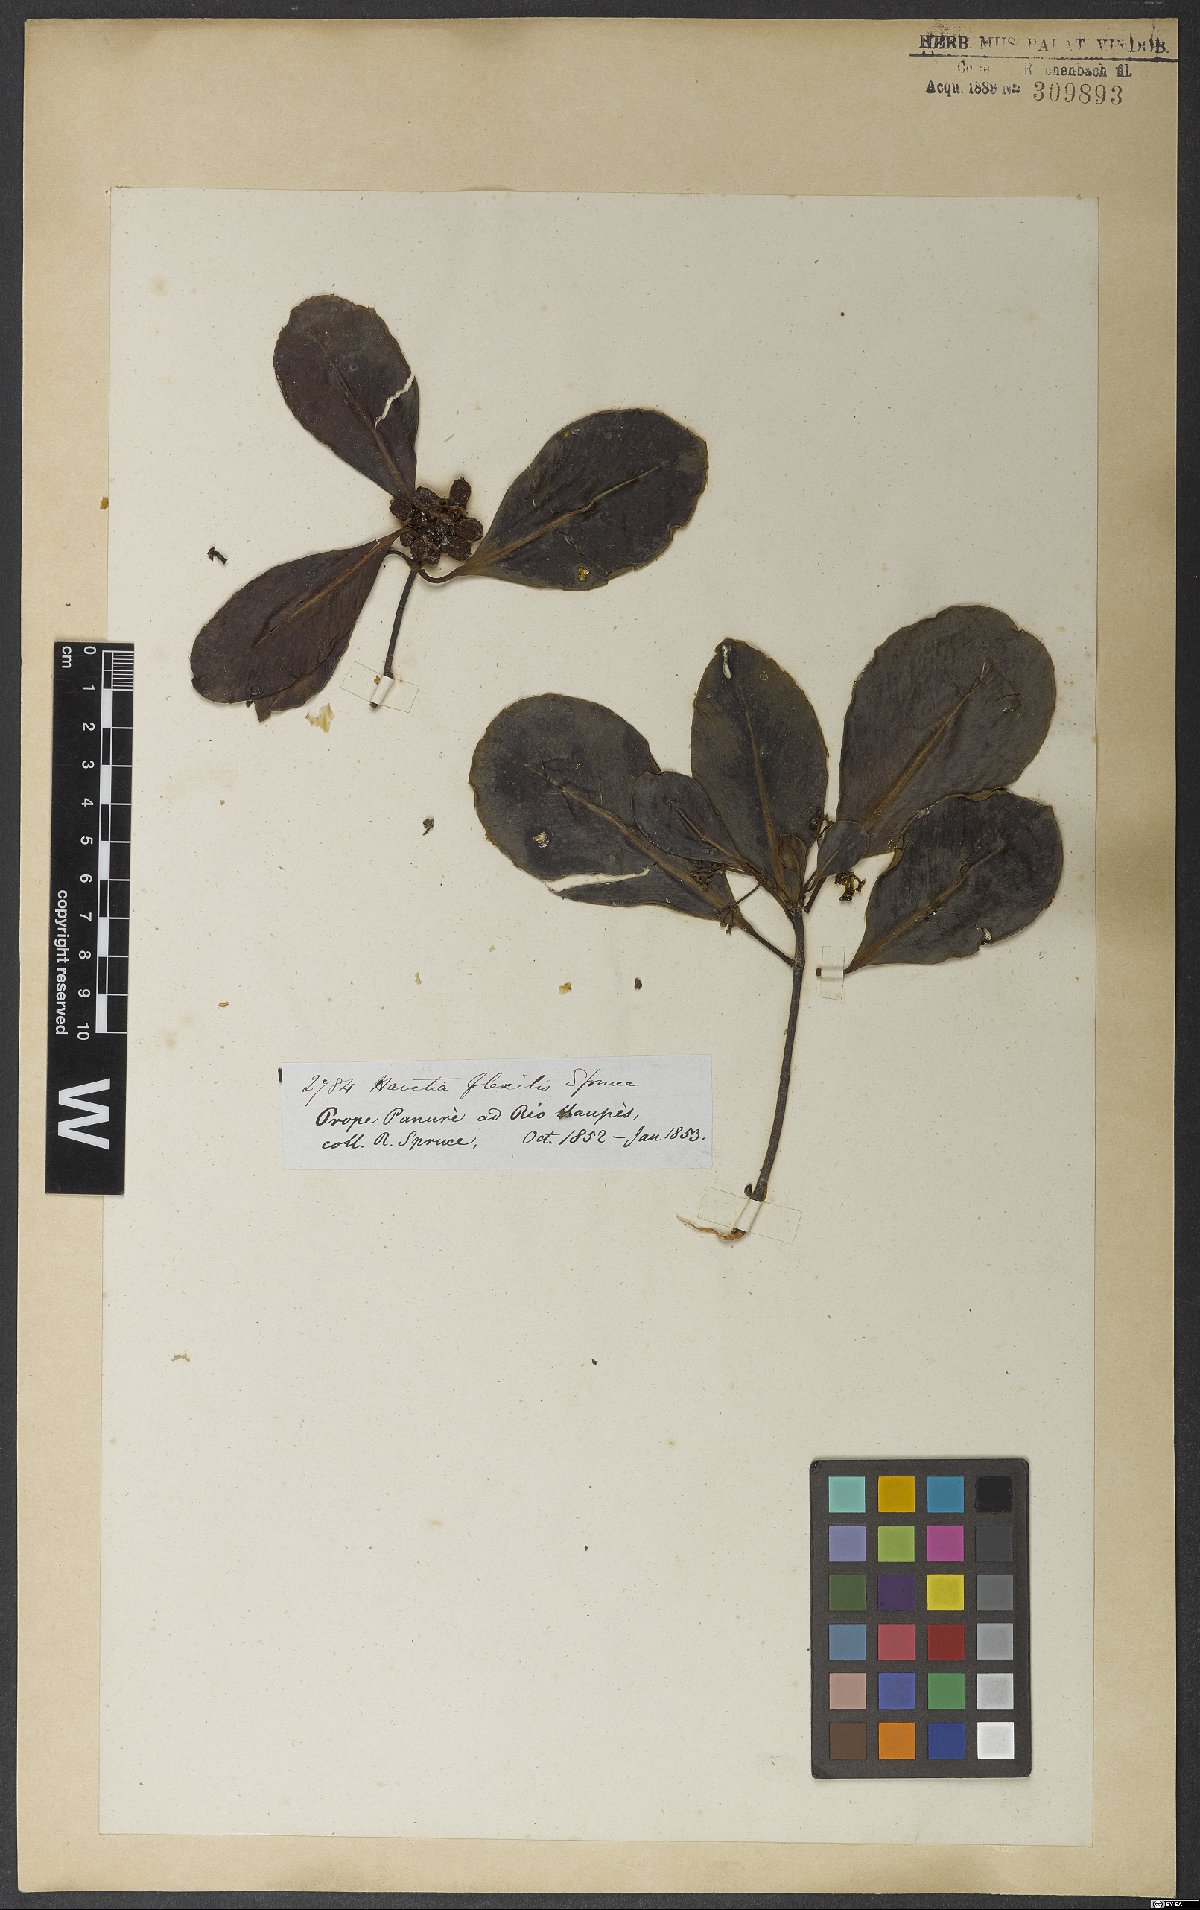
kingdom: Plantae
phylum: Tracheophyta
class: Magnoliopsida
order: Malpighiales
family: Clusiaceae
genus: Clusia
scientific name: Clusia flavida
